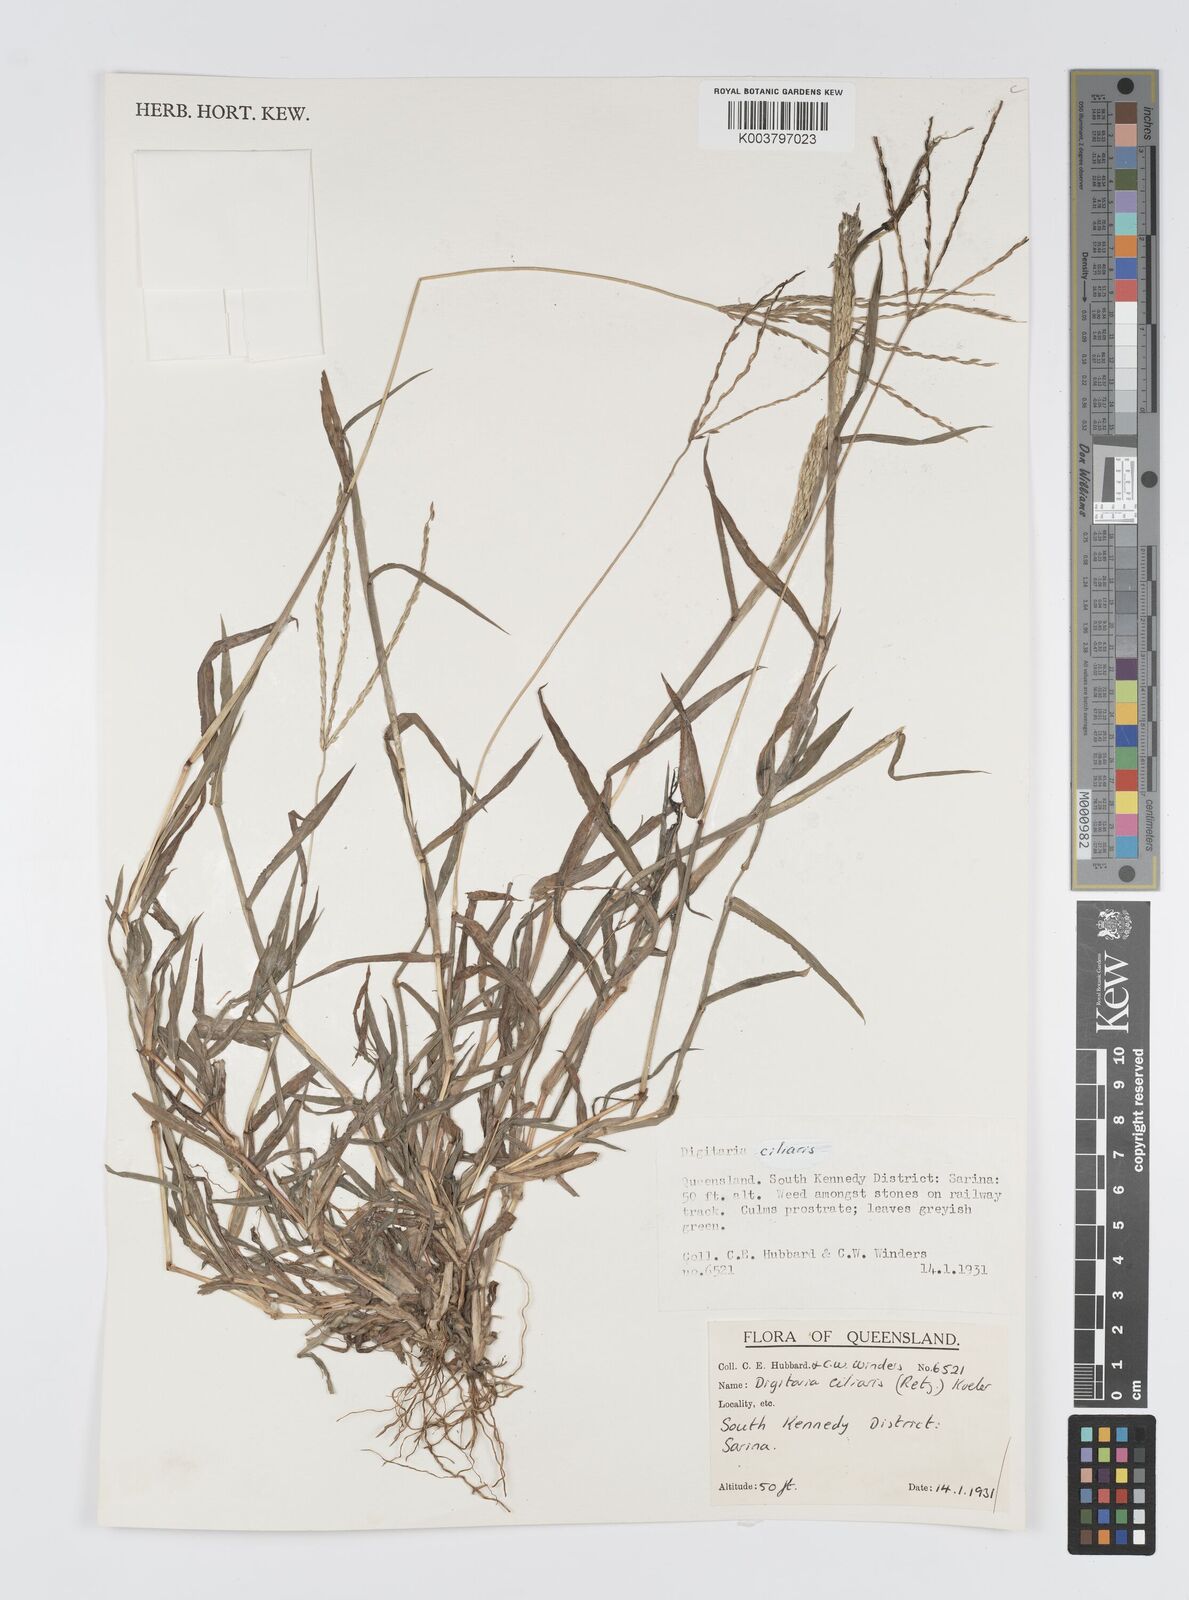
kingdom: Plantae
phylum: Tracheophyta
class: Liliopsida
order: Poales
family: Poaceae
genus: Digitaria
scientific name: Digitaria ciliaris
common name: Tropical finger-grass
